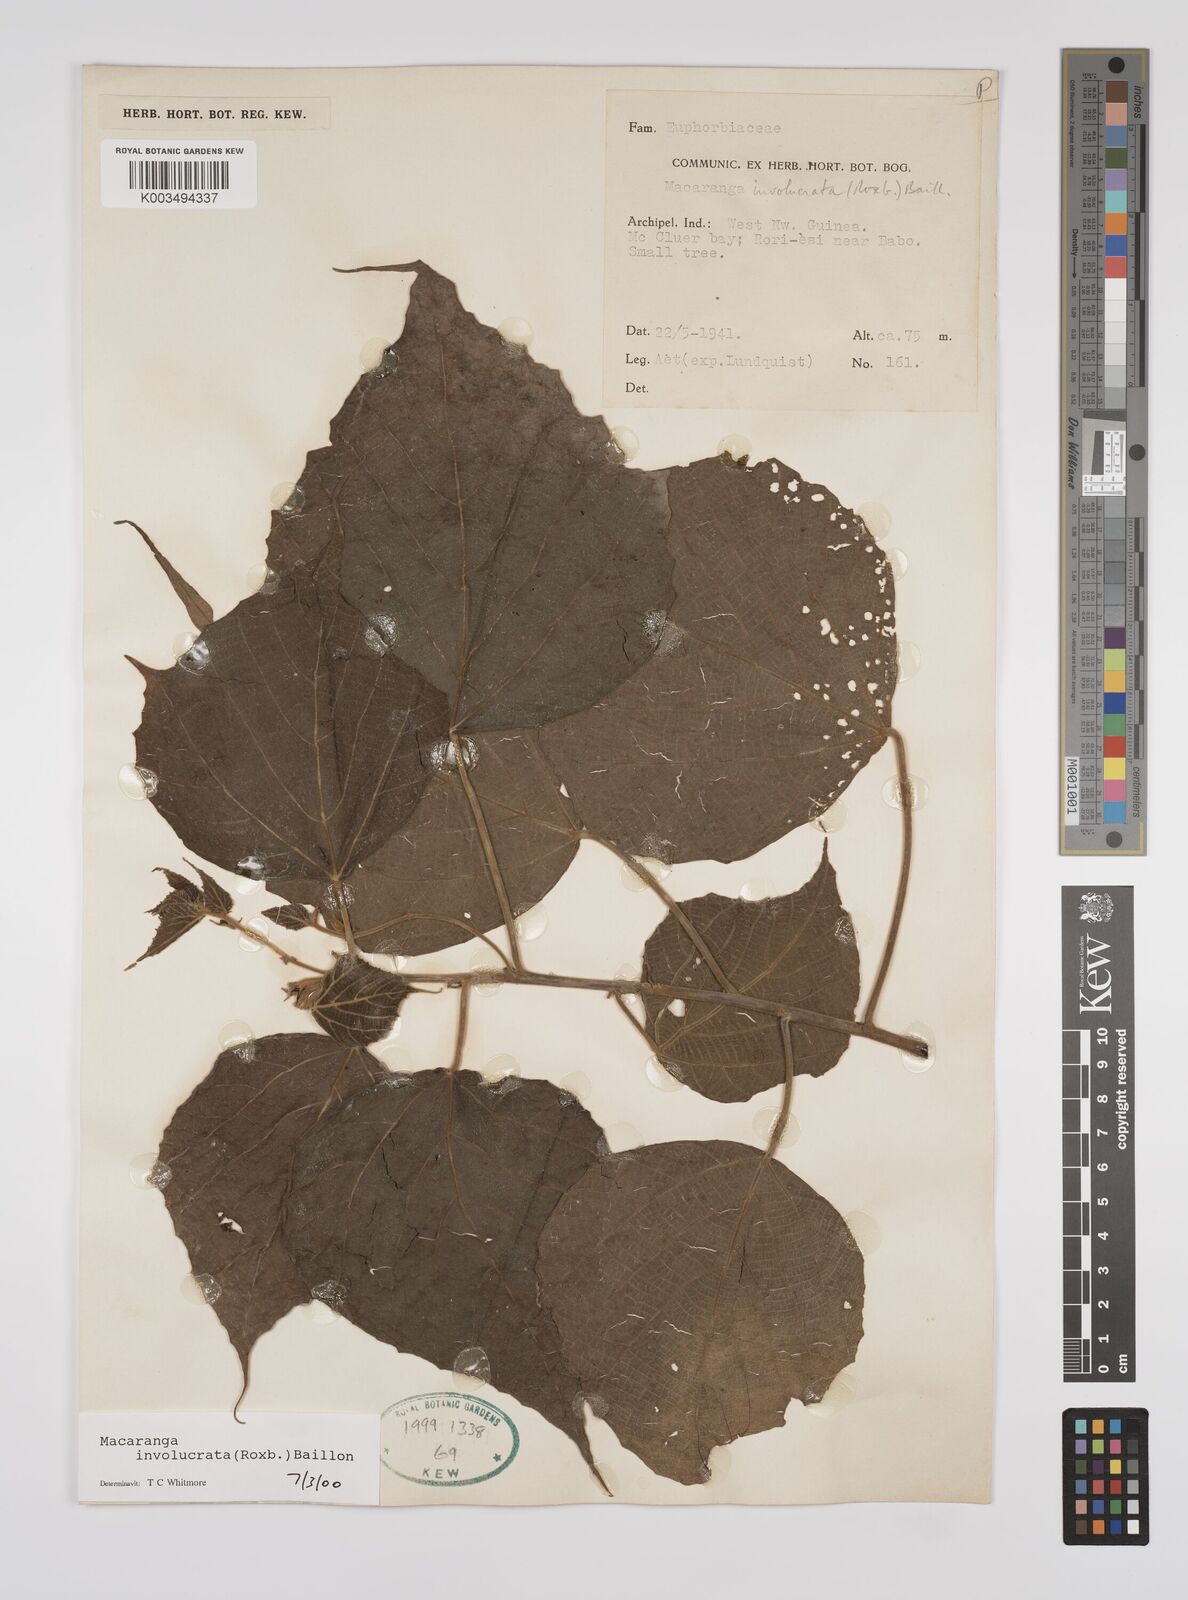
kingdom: Plantae
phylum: Tracheophyta
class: Magnoliopsida
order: Malpighiales
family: Euphorbiaceae
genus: Macaranga
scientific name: Macaranga involucrata
